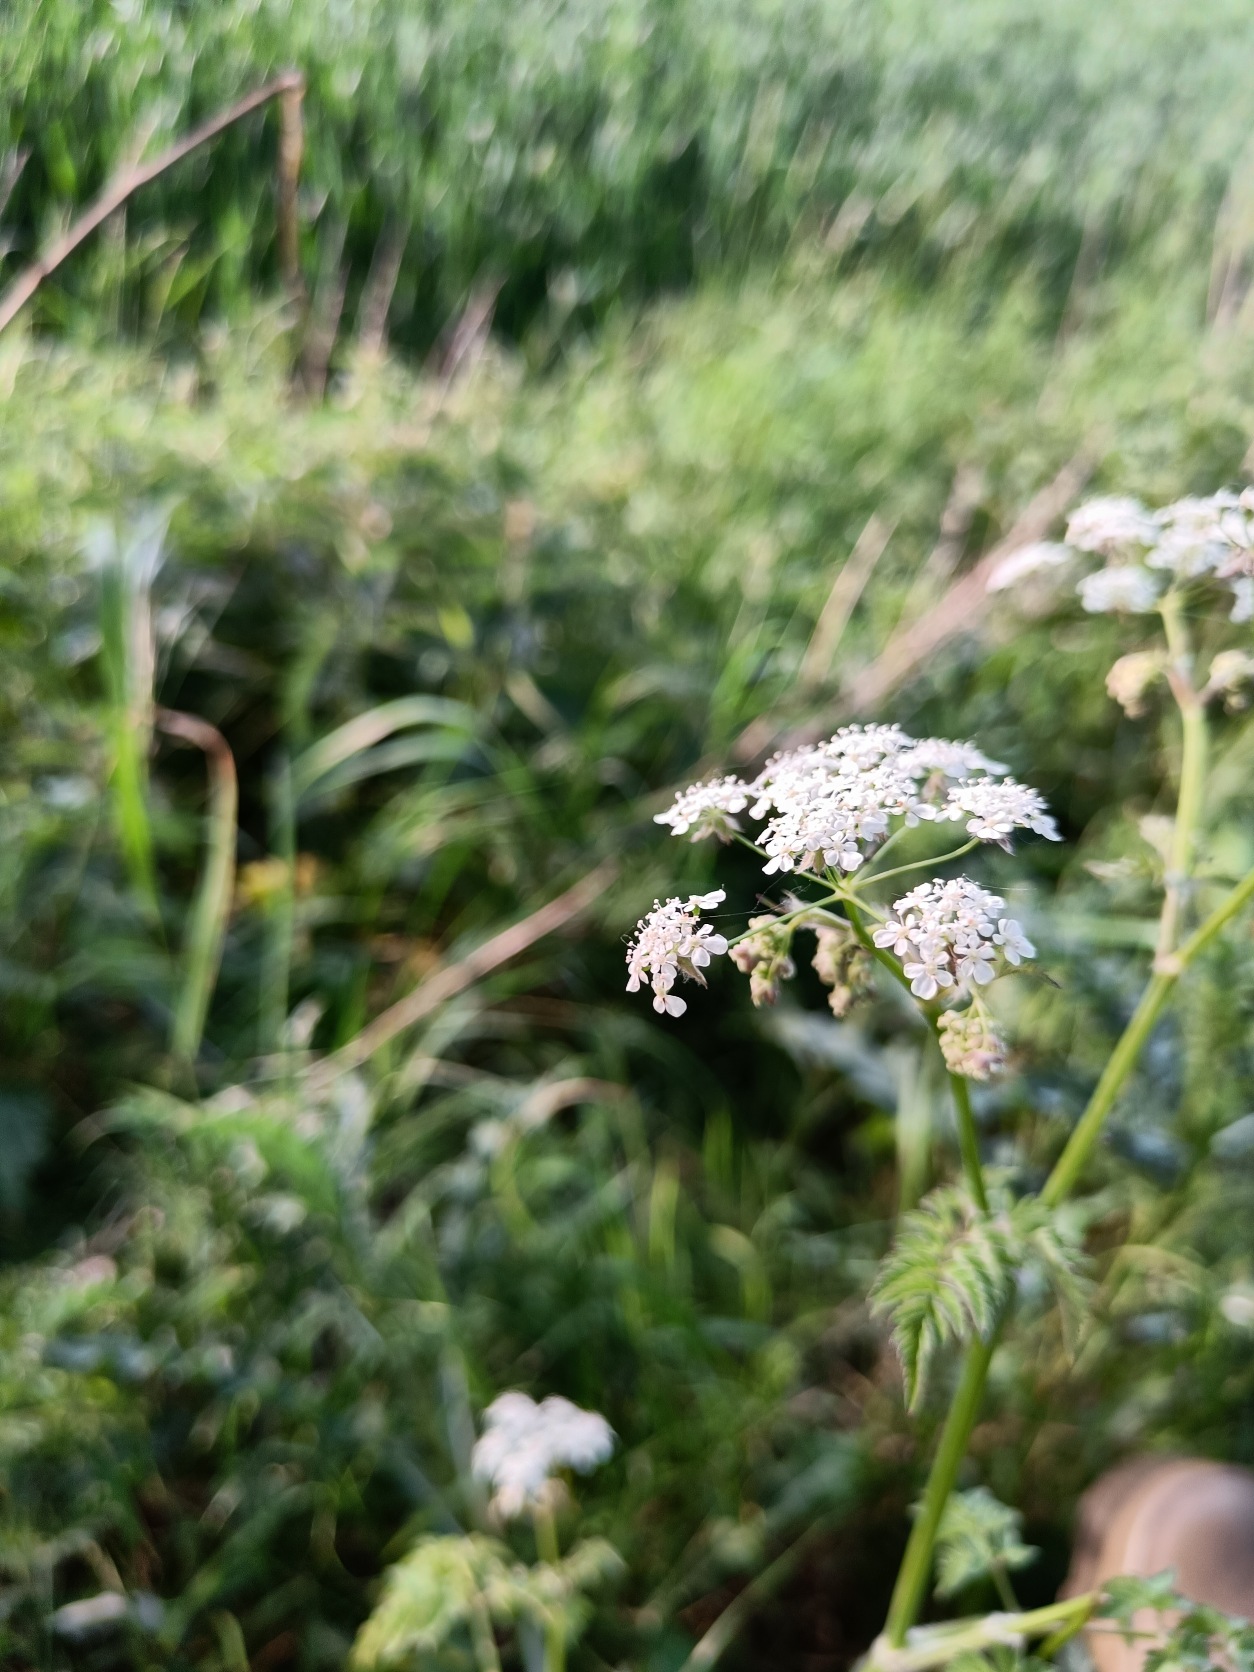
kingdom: Plantae
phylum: Tracheophyta
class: Magnoliopsida
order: Apiales
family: Apiaceae
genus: Anthriscus
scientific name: Anthriscus sylvestris
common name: Vild kørvel
